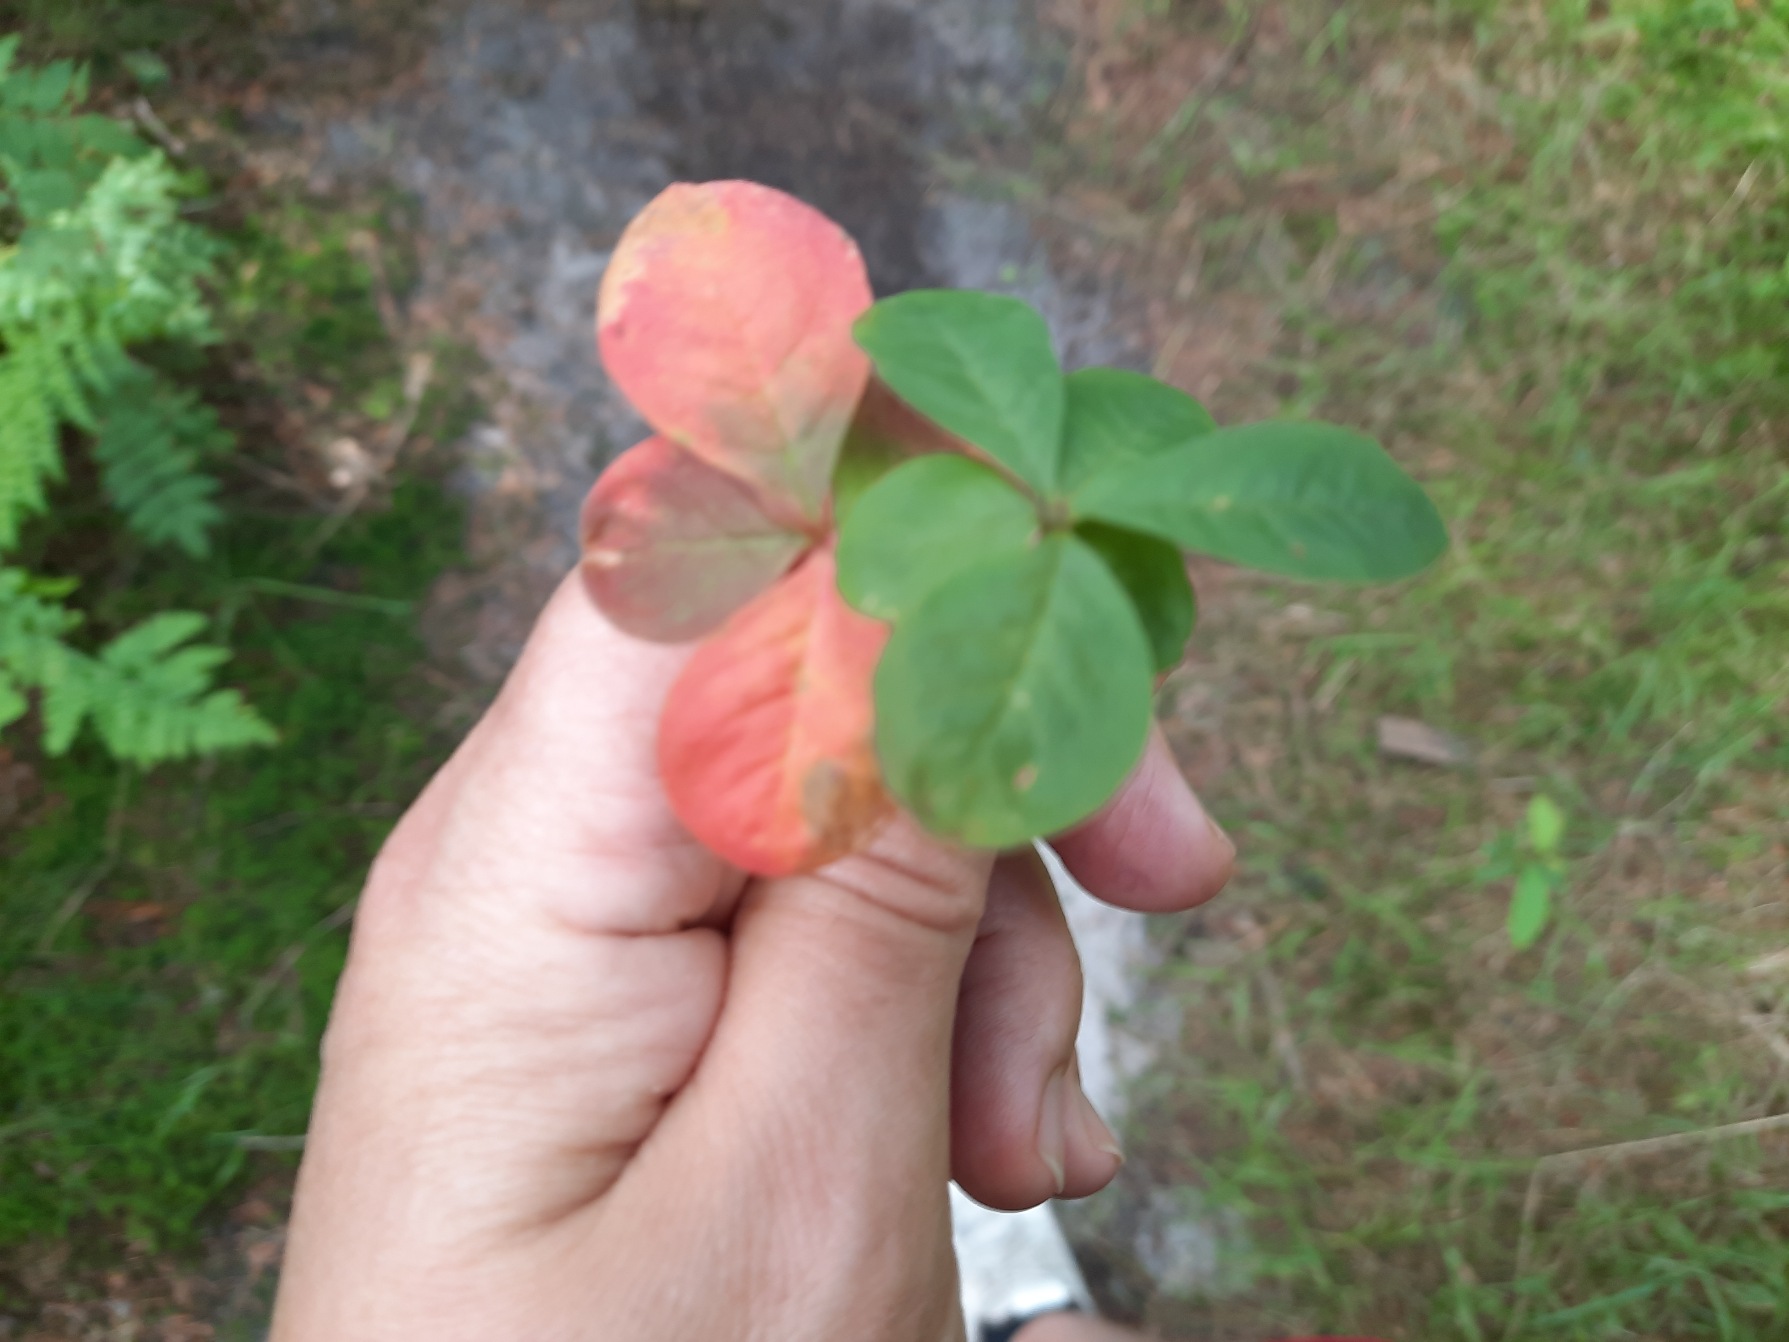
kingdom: Plantae
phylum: Tracheophyta
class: Magnoliopsida
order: Ericales
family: Primulaceae
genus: Lysimachia
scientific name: Lysimachia europaea
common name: Skovstjerne
